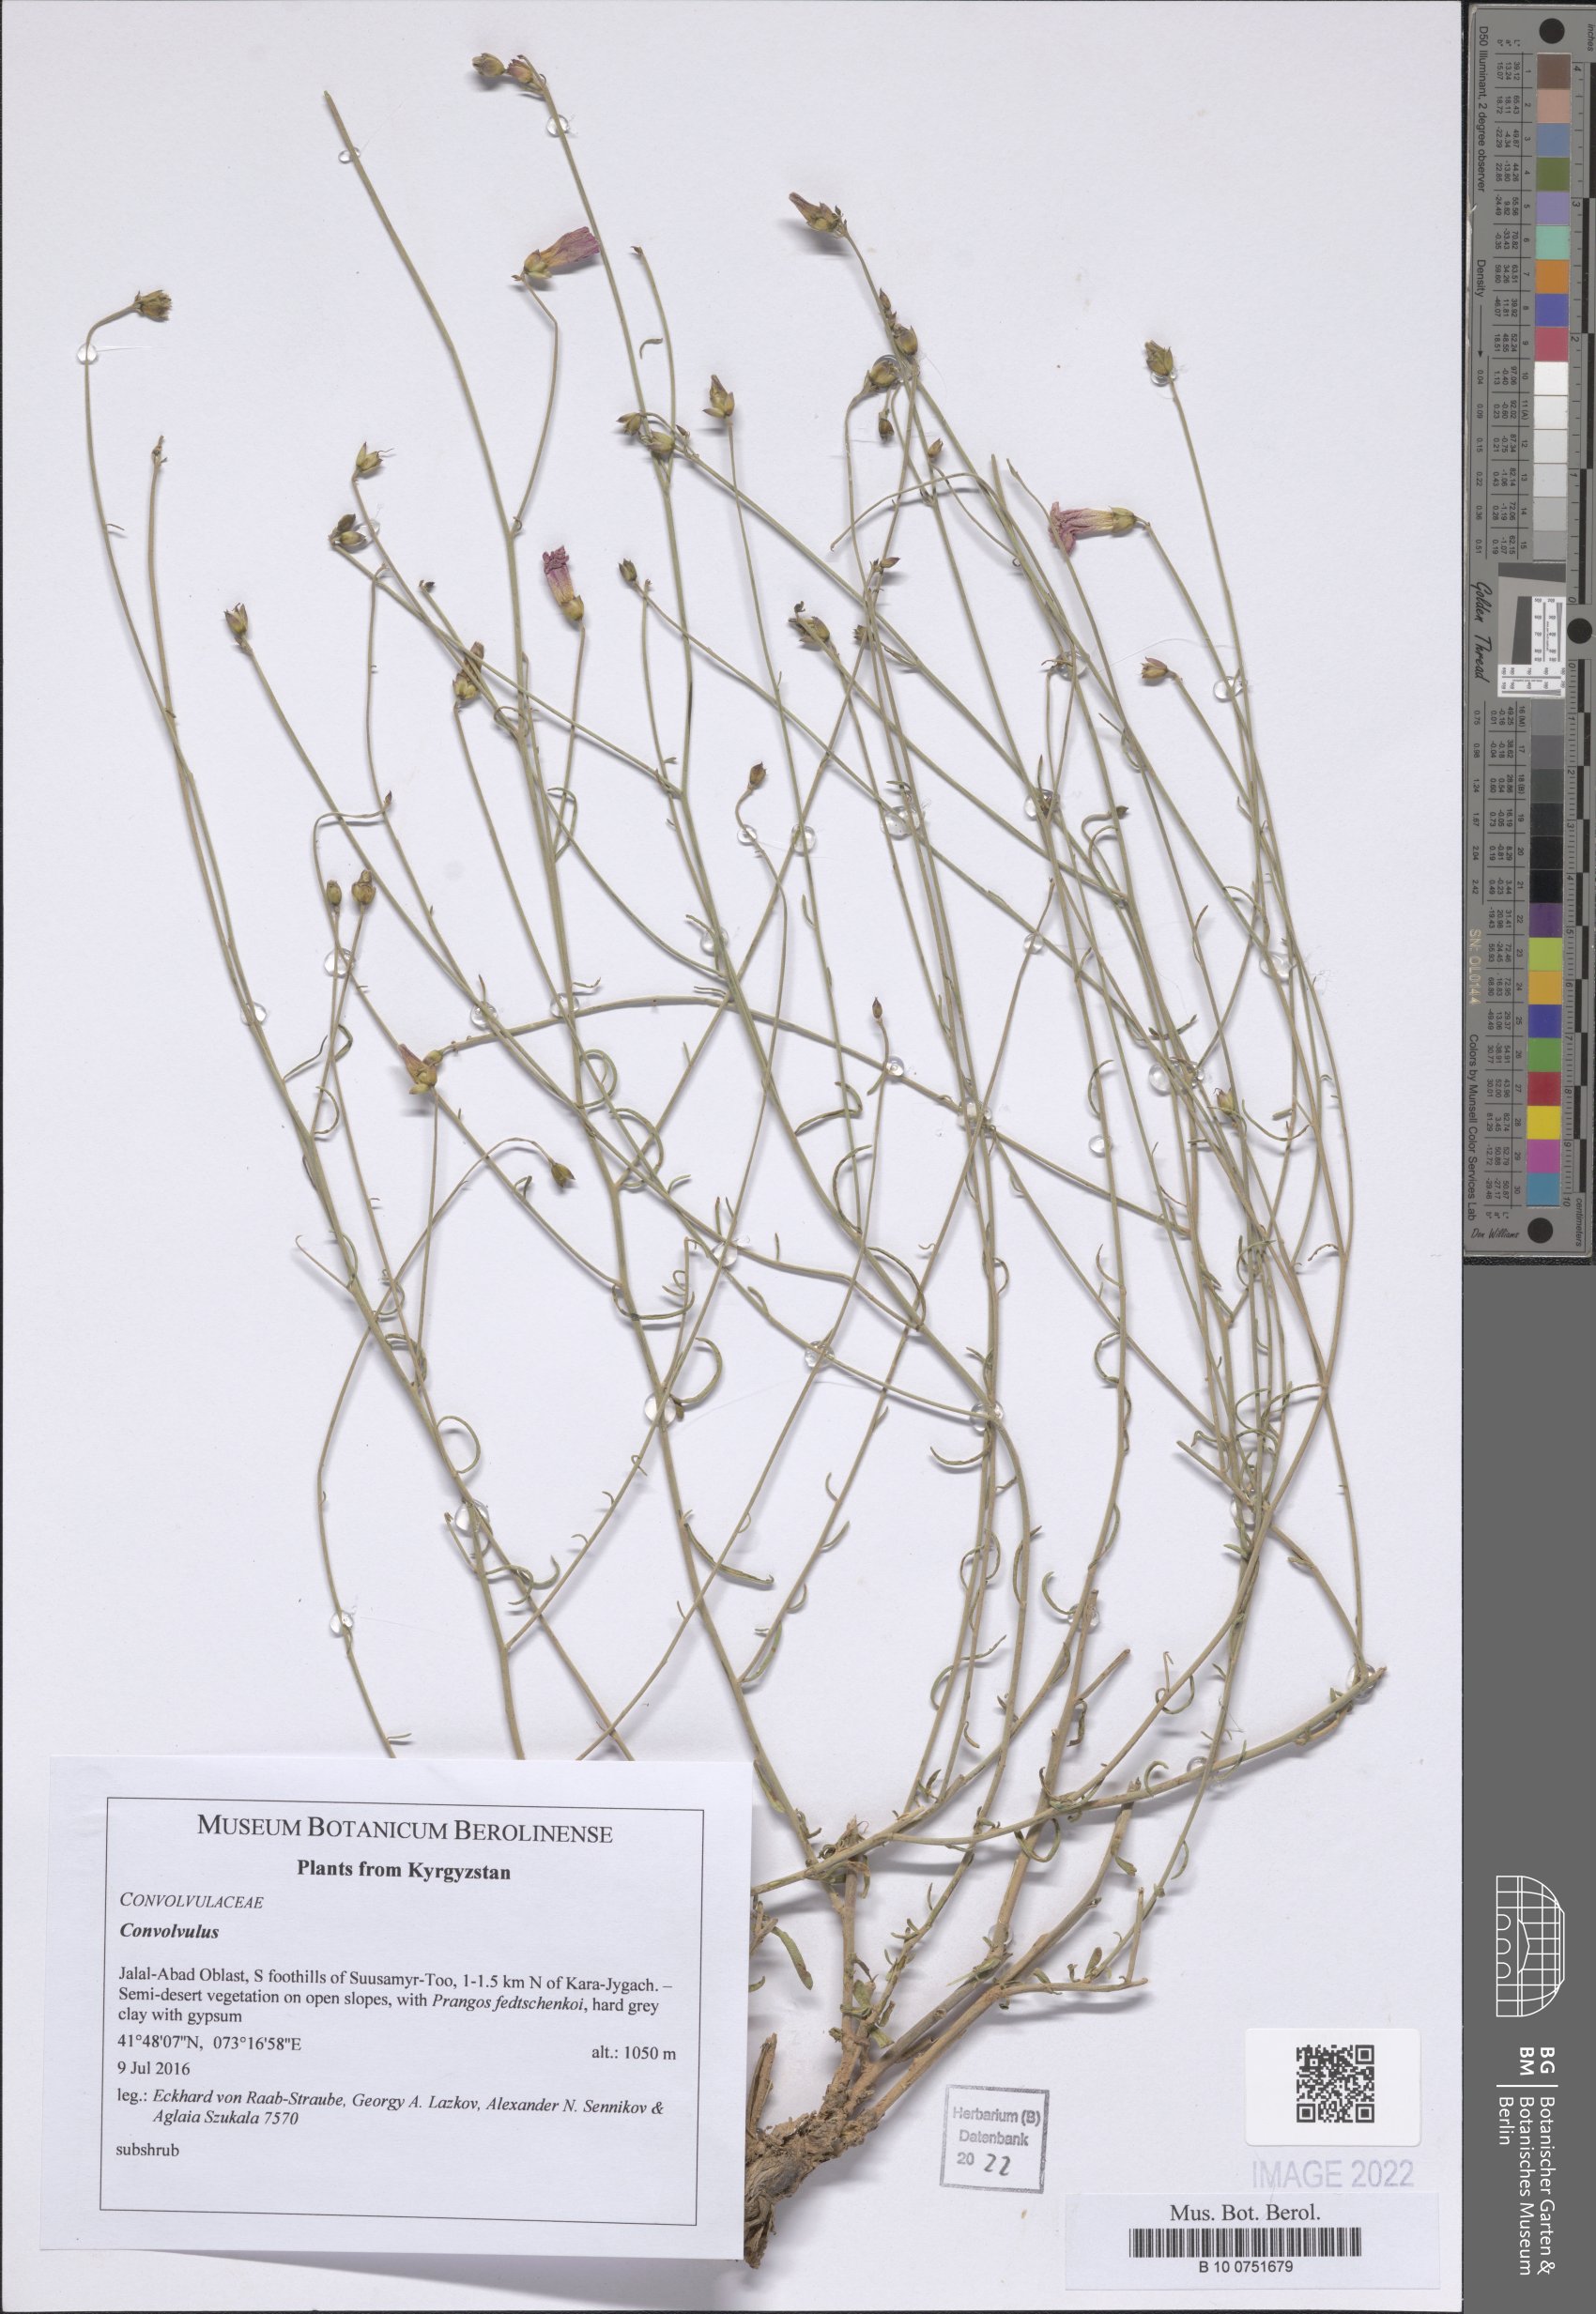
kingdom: Plantae
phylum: Tracheophyta
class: Magnoliopsida
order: Solanales
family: Convolvulaceae
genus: Convolvulus
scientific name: Convolvulus
